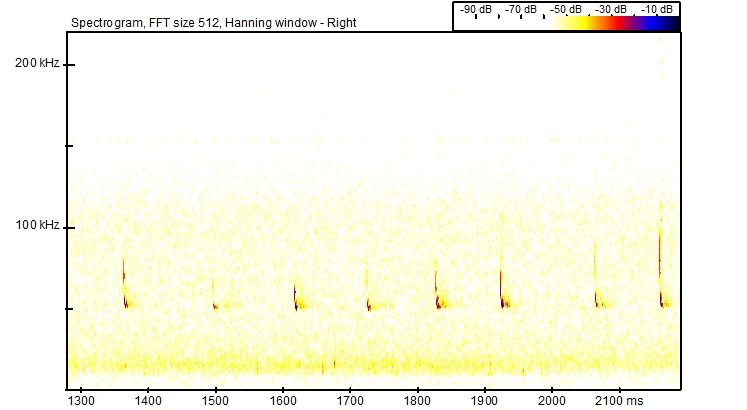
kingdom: Animalia
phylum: Chordata
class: Mammalia
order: Chiroptera
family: Vespertilionidae
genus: Pipistrellus
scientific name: Pipistrellus pygmaeus
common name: Dværgflagermus
